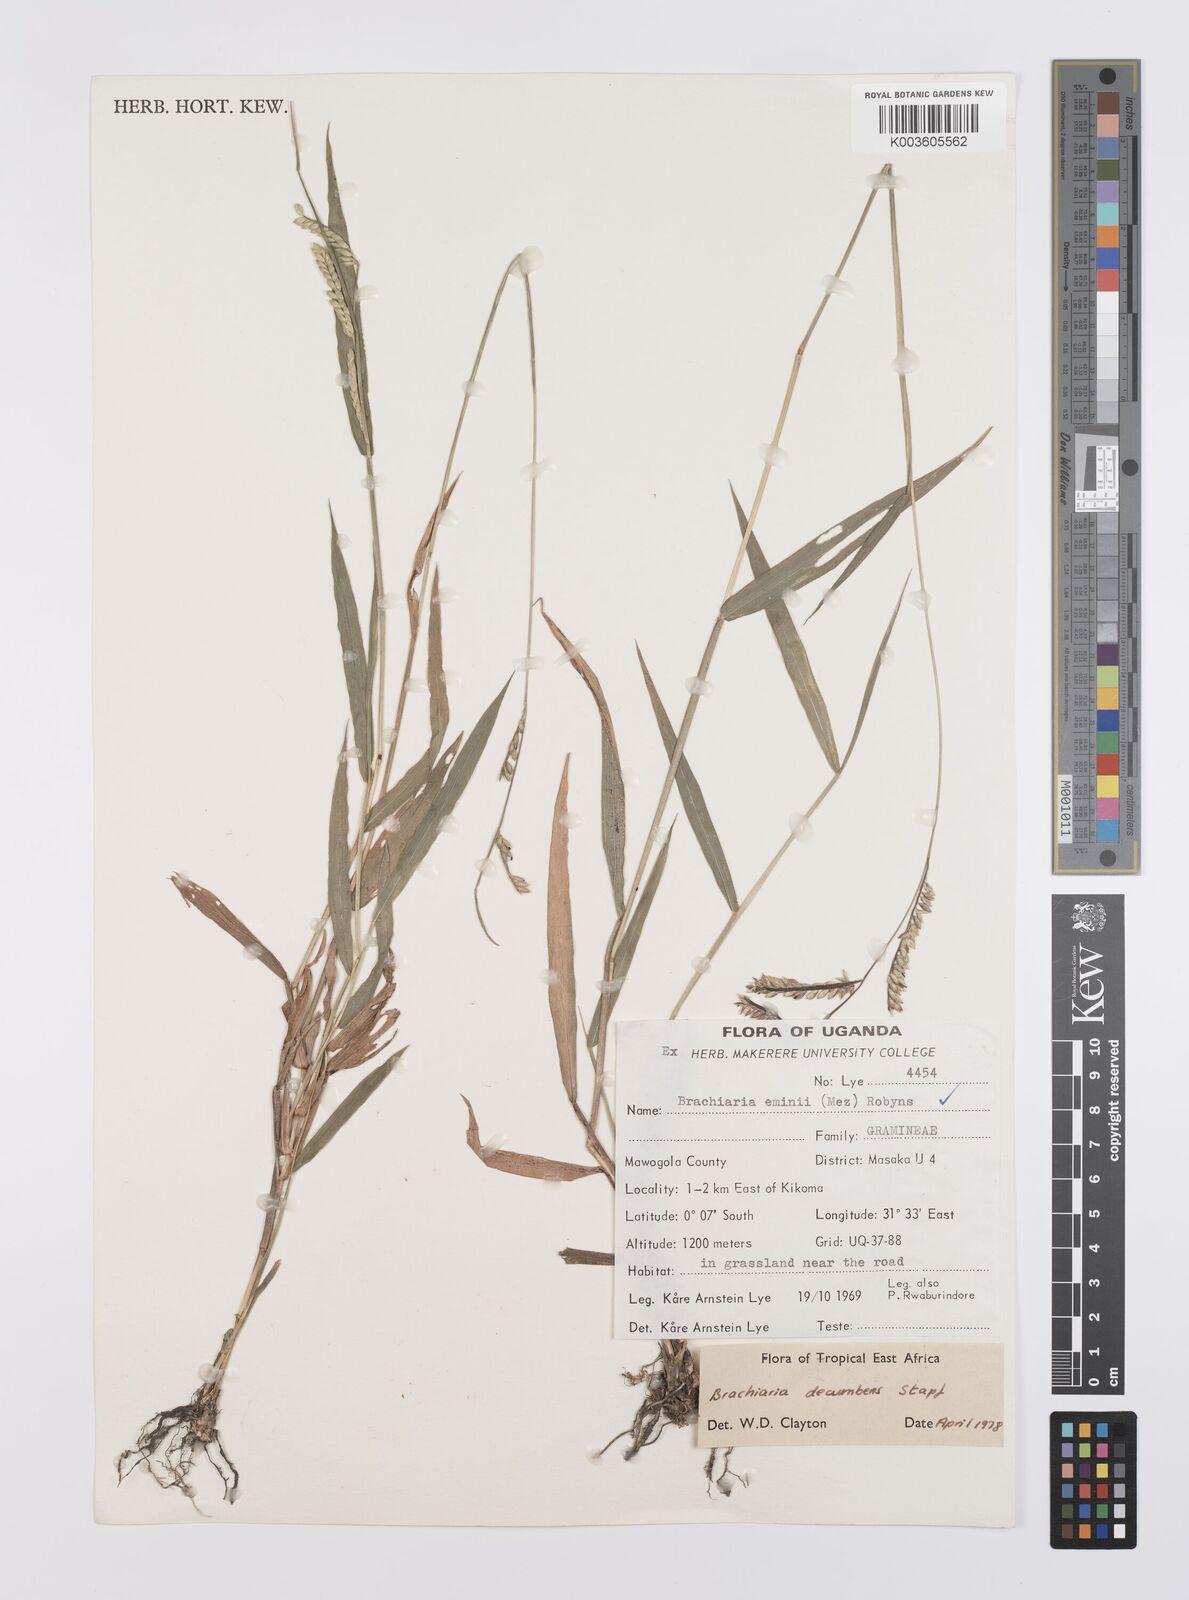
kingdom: Plantae
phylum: Tracheophyta
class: Liliopsida
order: Poales
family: Poaceae
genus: Urochloa
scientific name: Urochloa eminii
